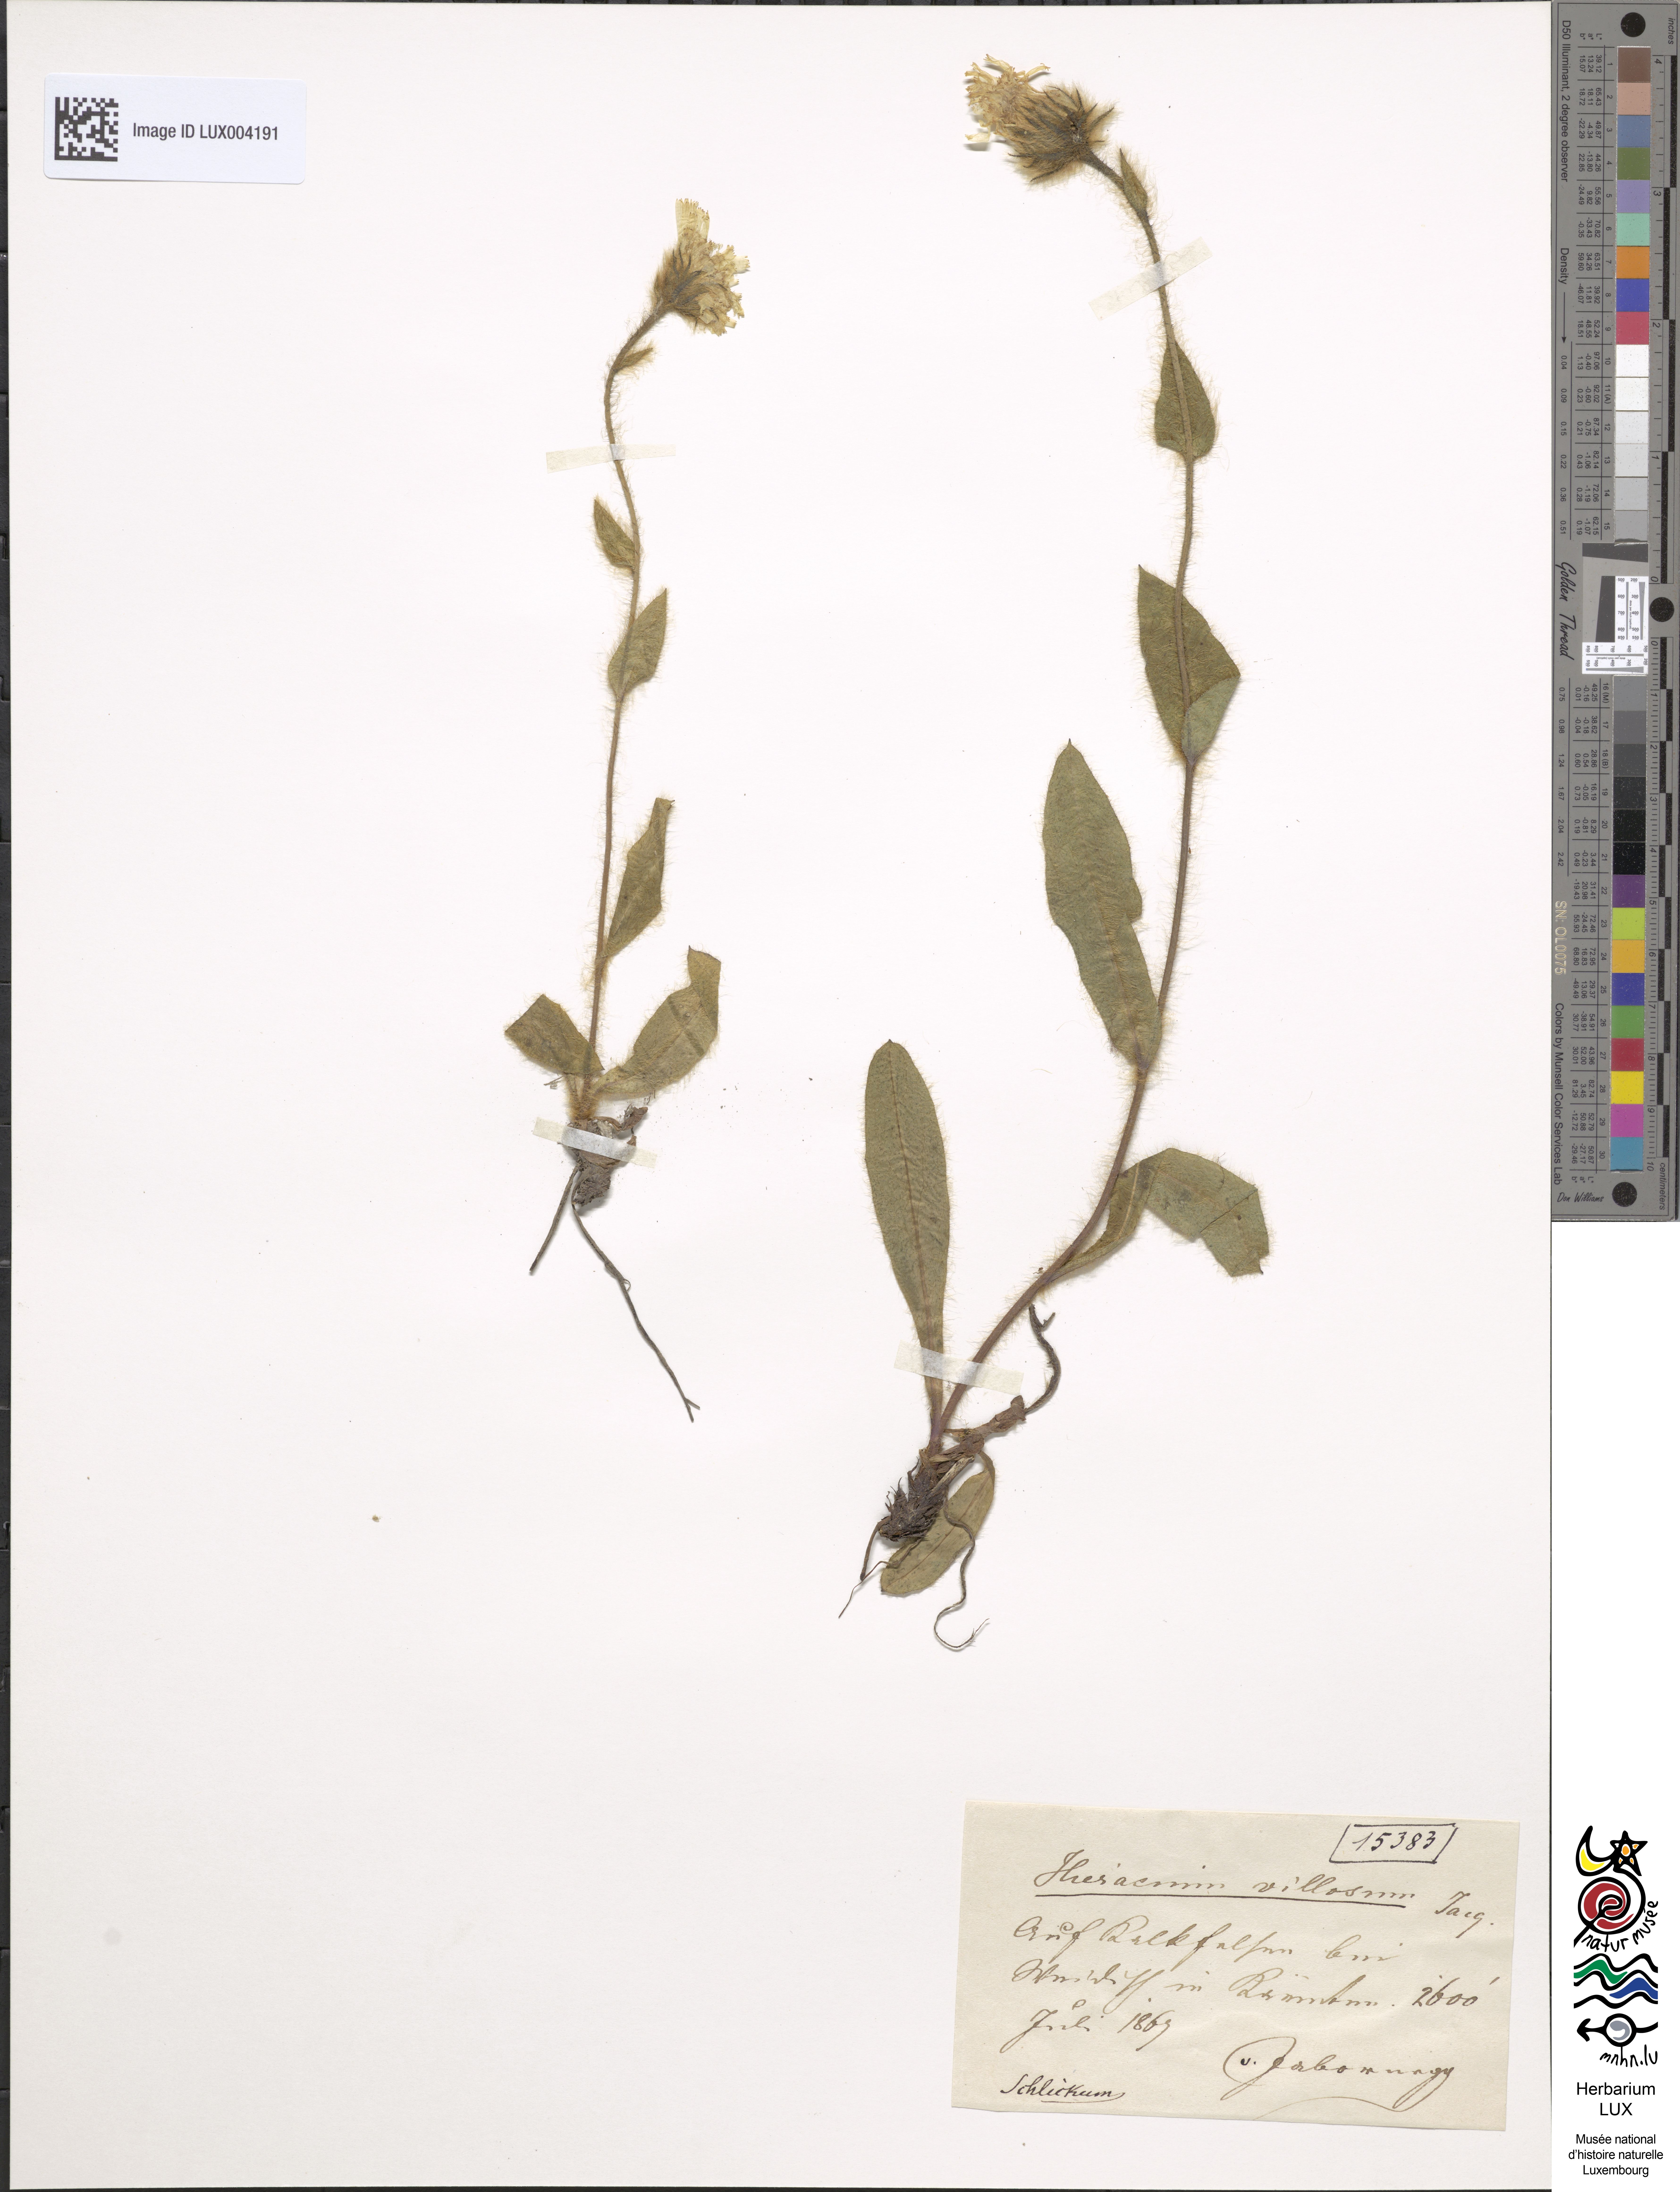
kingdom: Plantae
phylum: Tracheophyta
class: Magnoliopsida
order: Asterales
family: Asteraceae
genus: Hieracium
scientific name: Hieracium villosum
